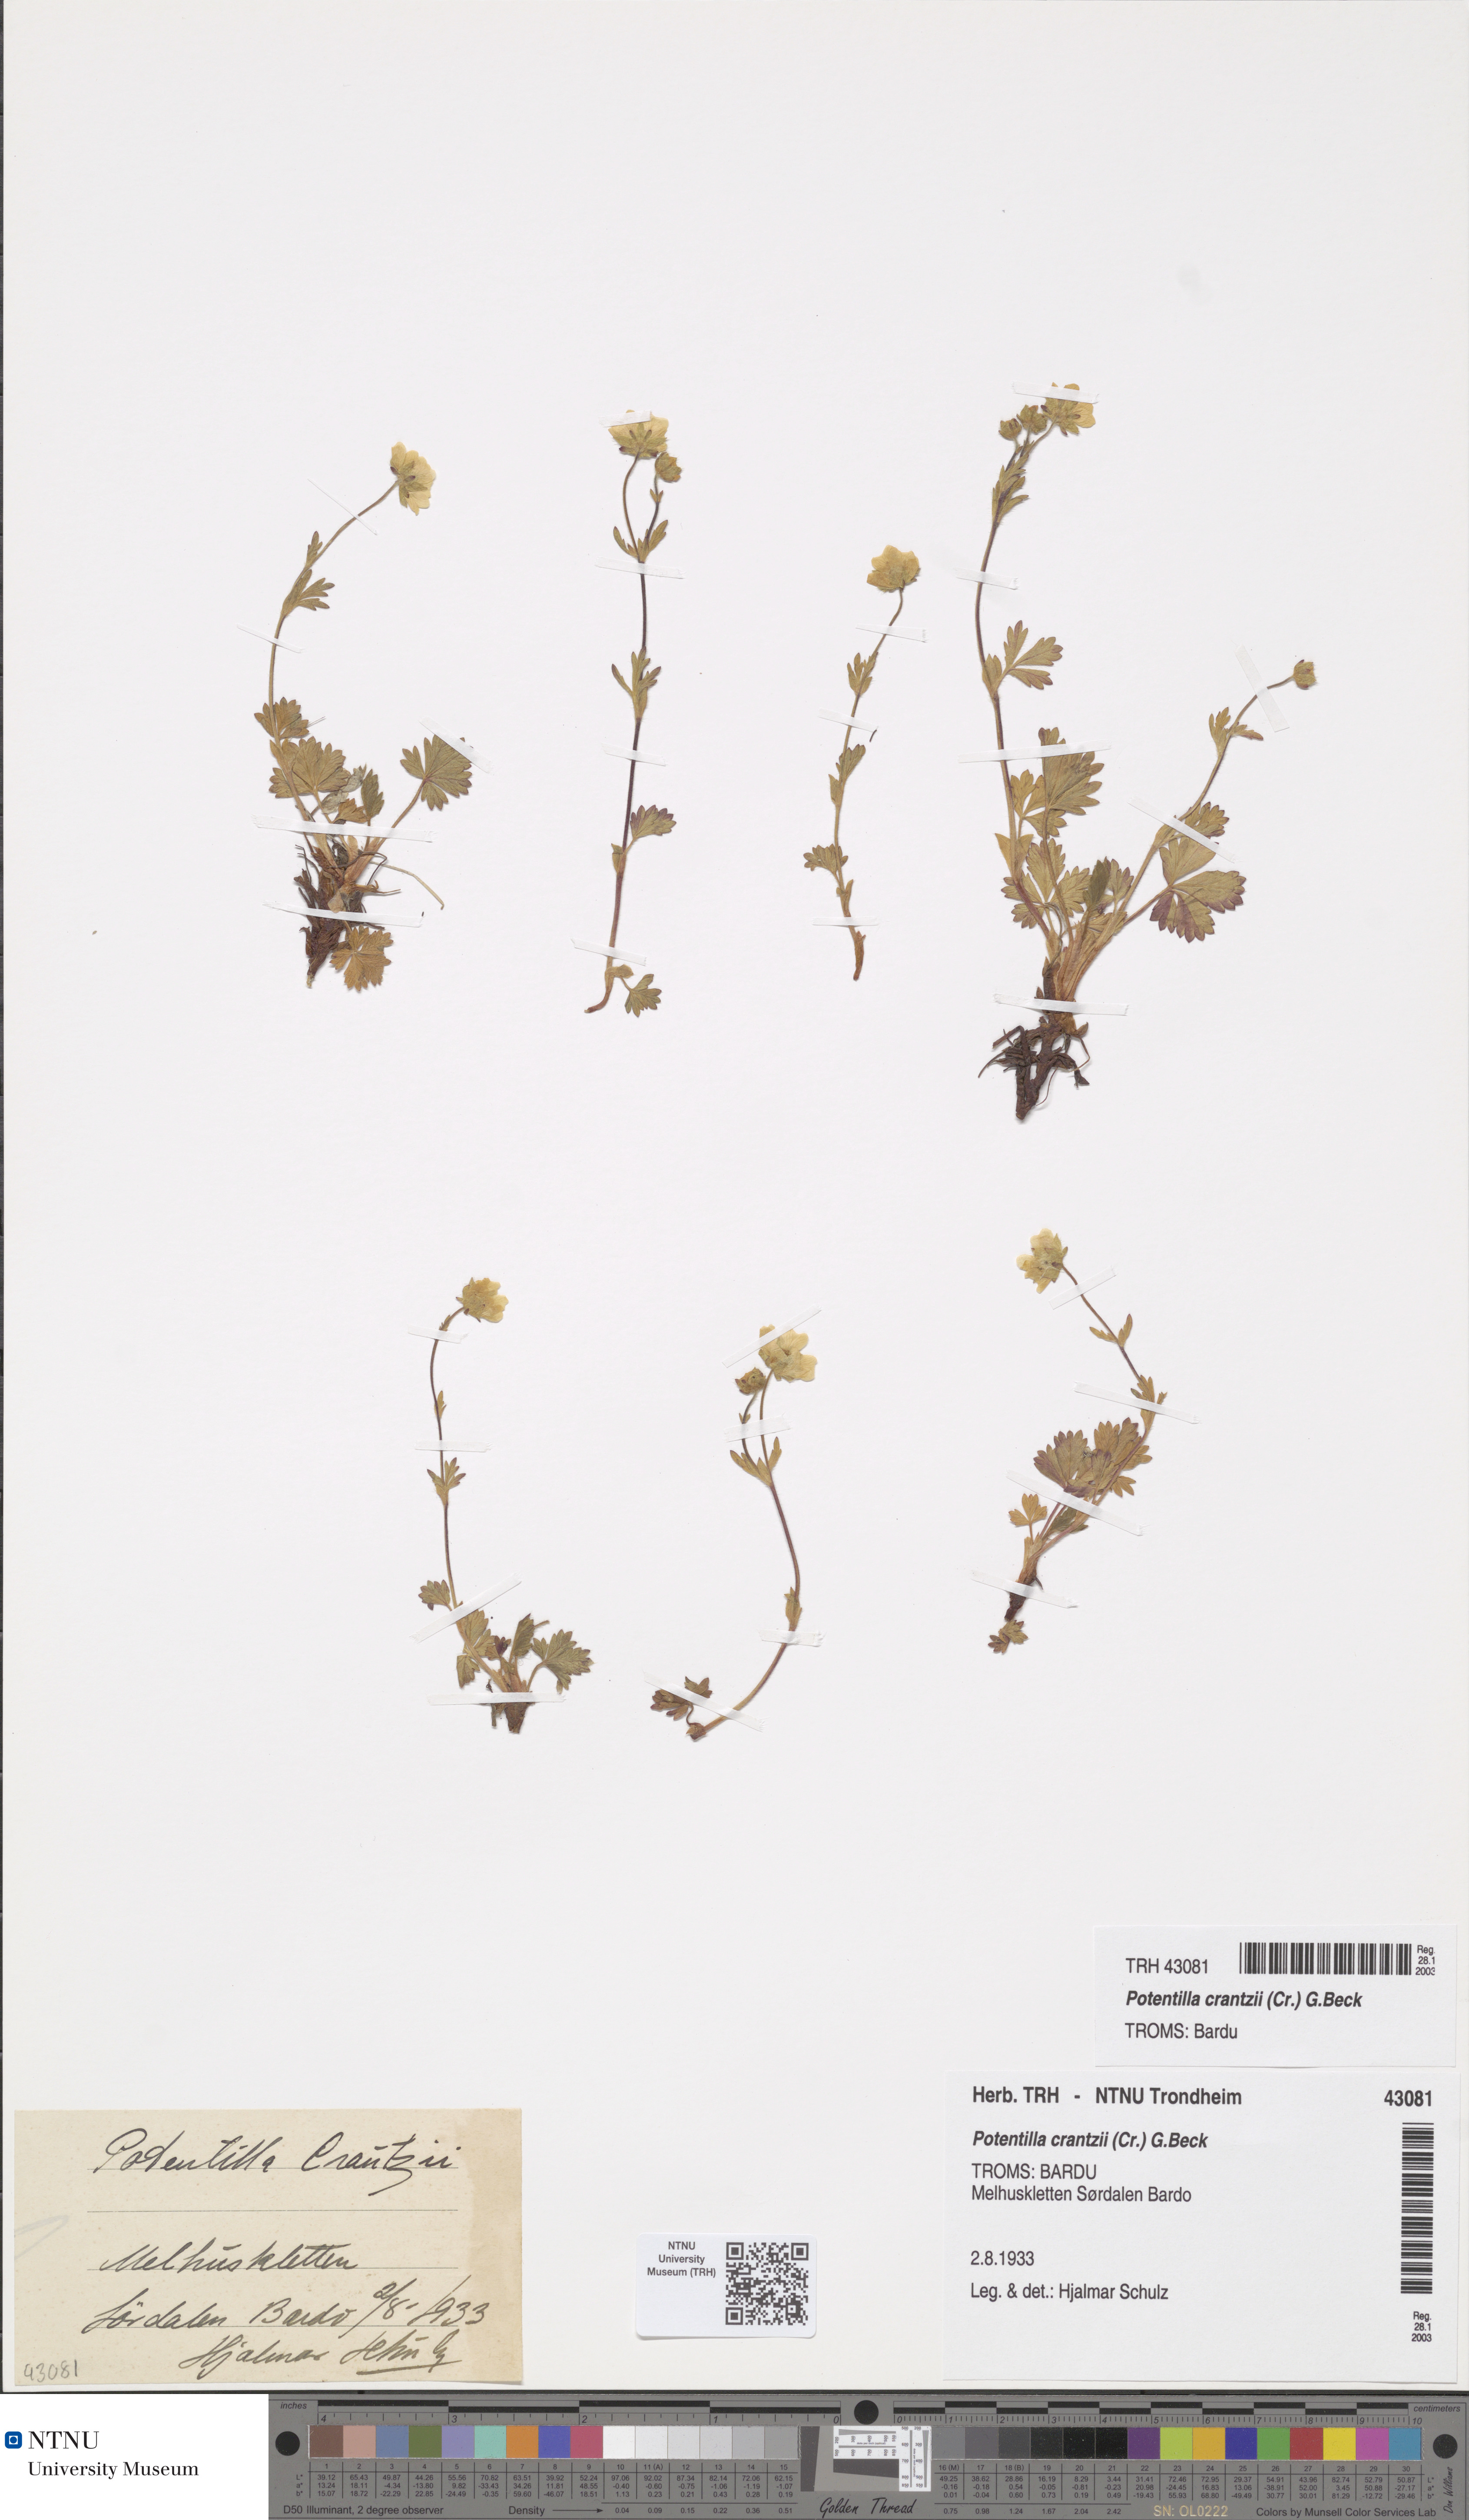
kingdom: Plantae
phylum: Tracheophyta
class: Magnoliopsida
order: Rosales
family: Rosaceae
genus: Potentilla
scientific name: Potentilla crantzii
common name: Alpine cinquefoil
